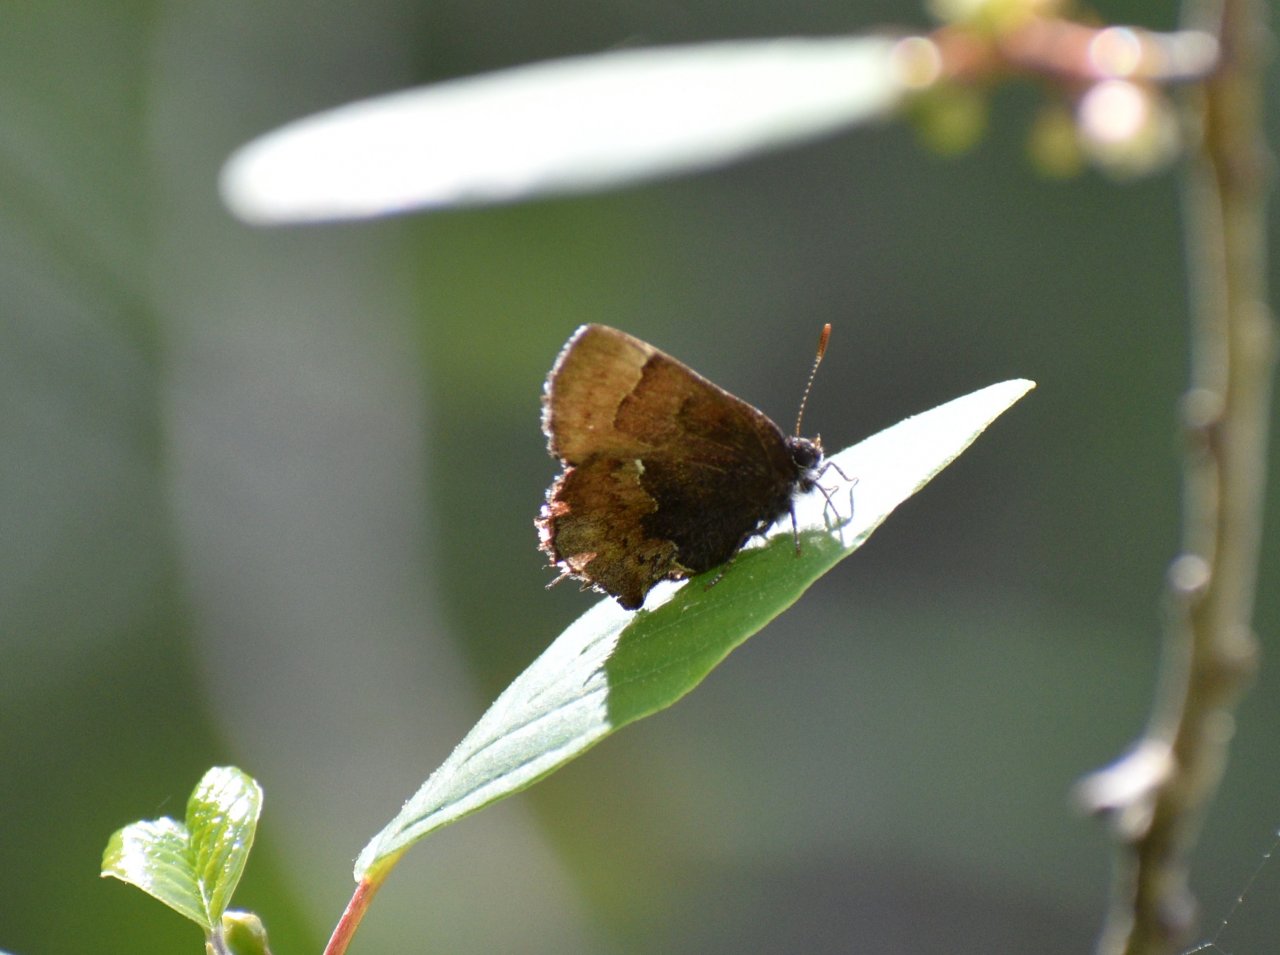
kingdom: Animalia
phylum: Arthropoda
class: Insecta
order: Lepidoptera
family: Lycaenidae
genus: Incisalia
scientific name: Incisalia henrici
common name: Henry's Elfin
